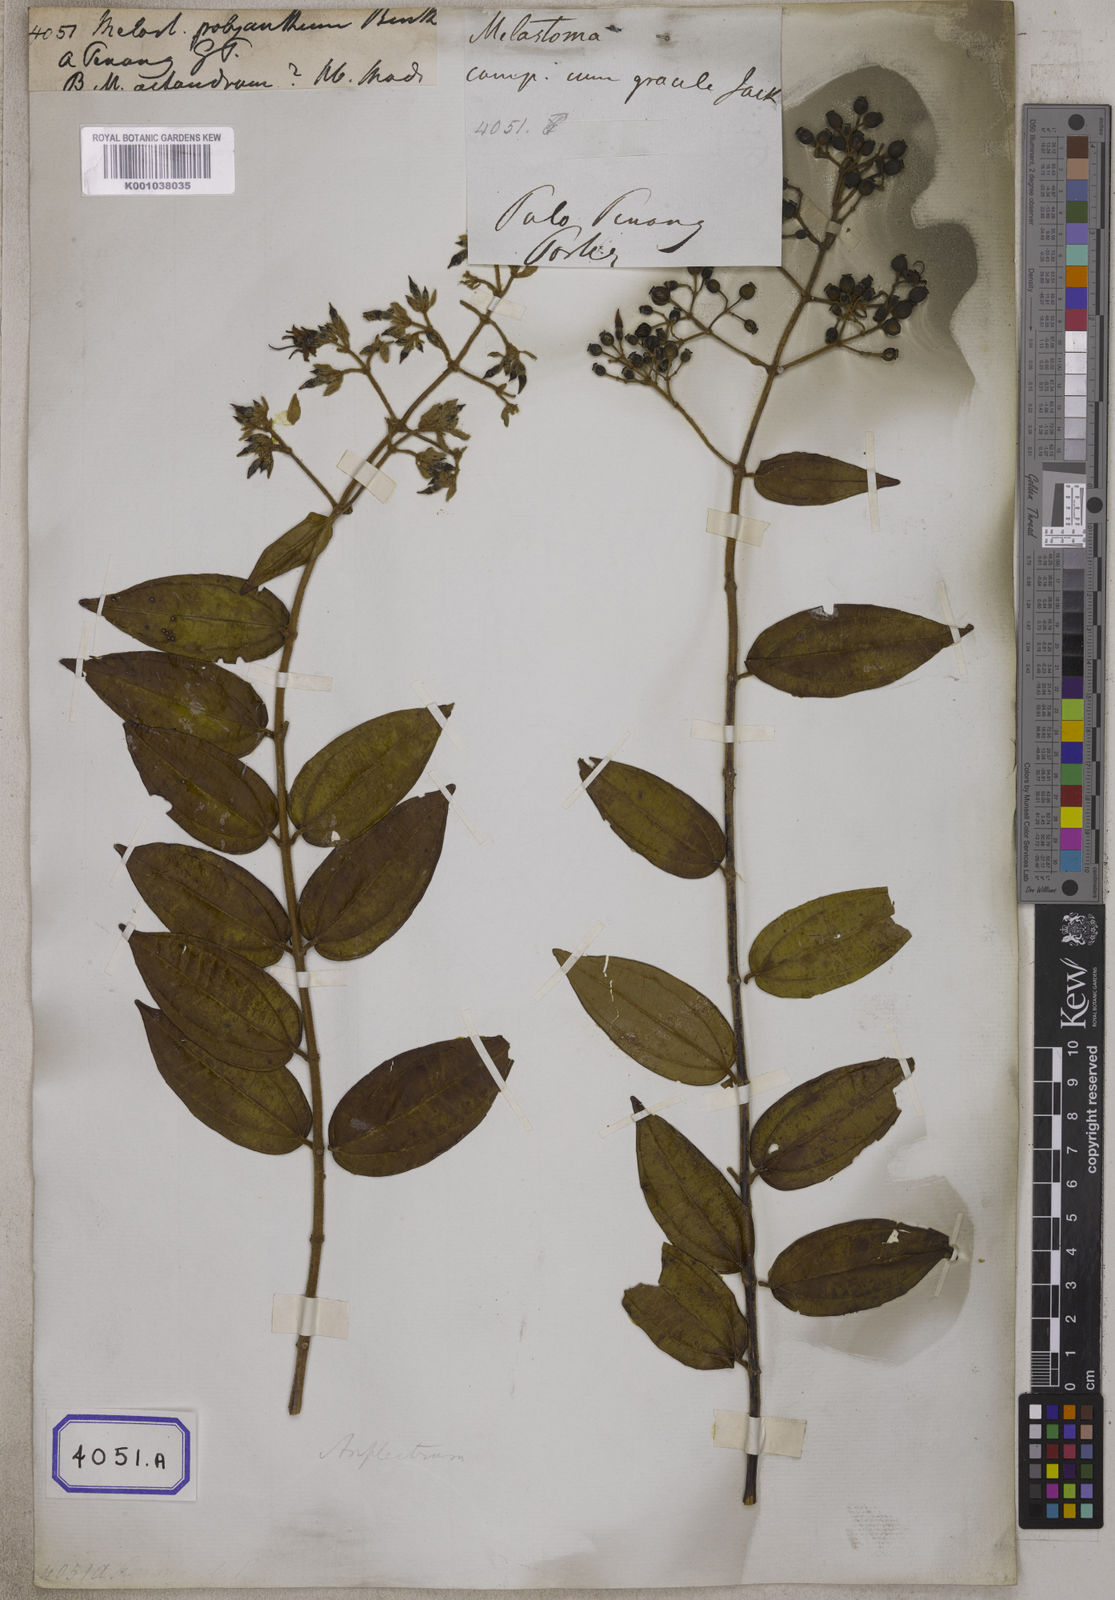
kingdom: Plantae
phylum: Tracheophyta
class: Magnoliopsida
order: Myrtales
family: Melastomataceae
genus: Melastoma
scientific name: Melastoma
